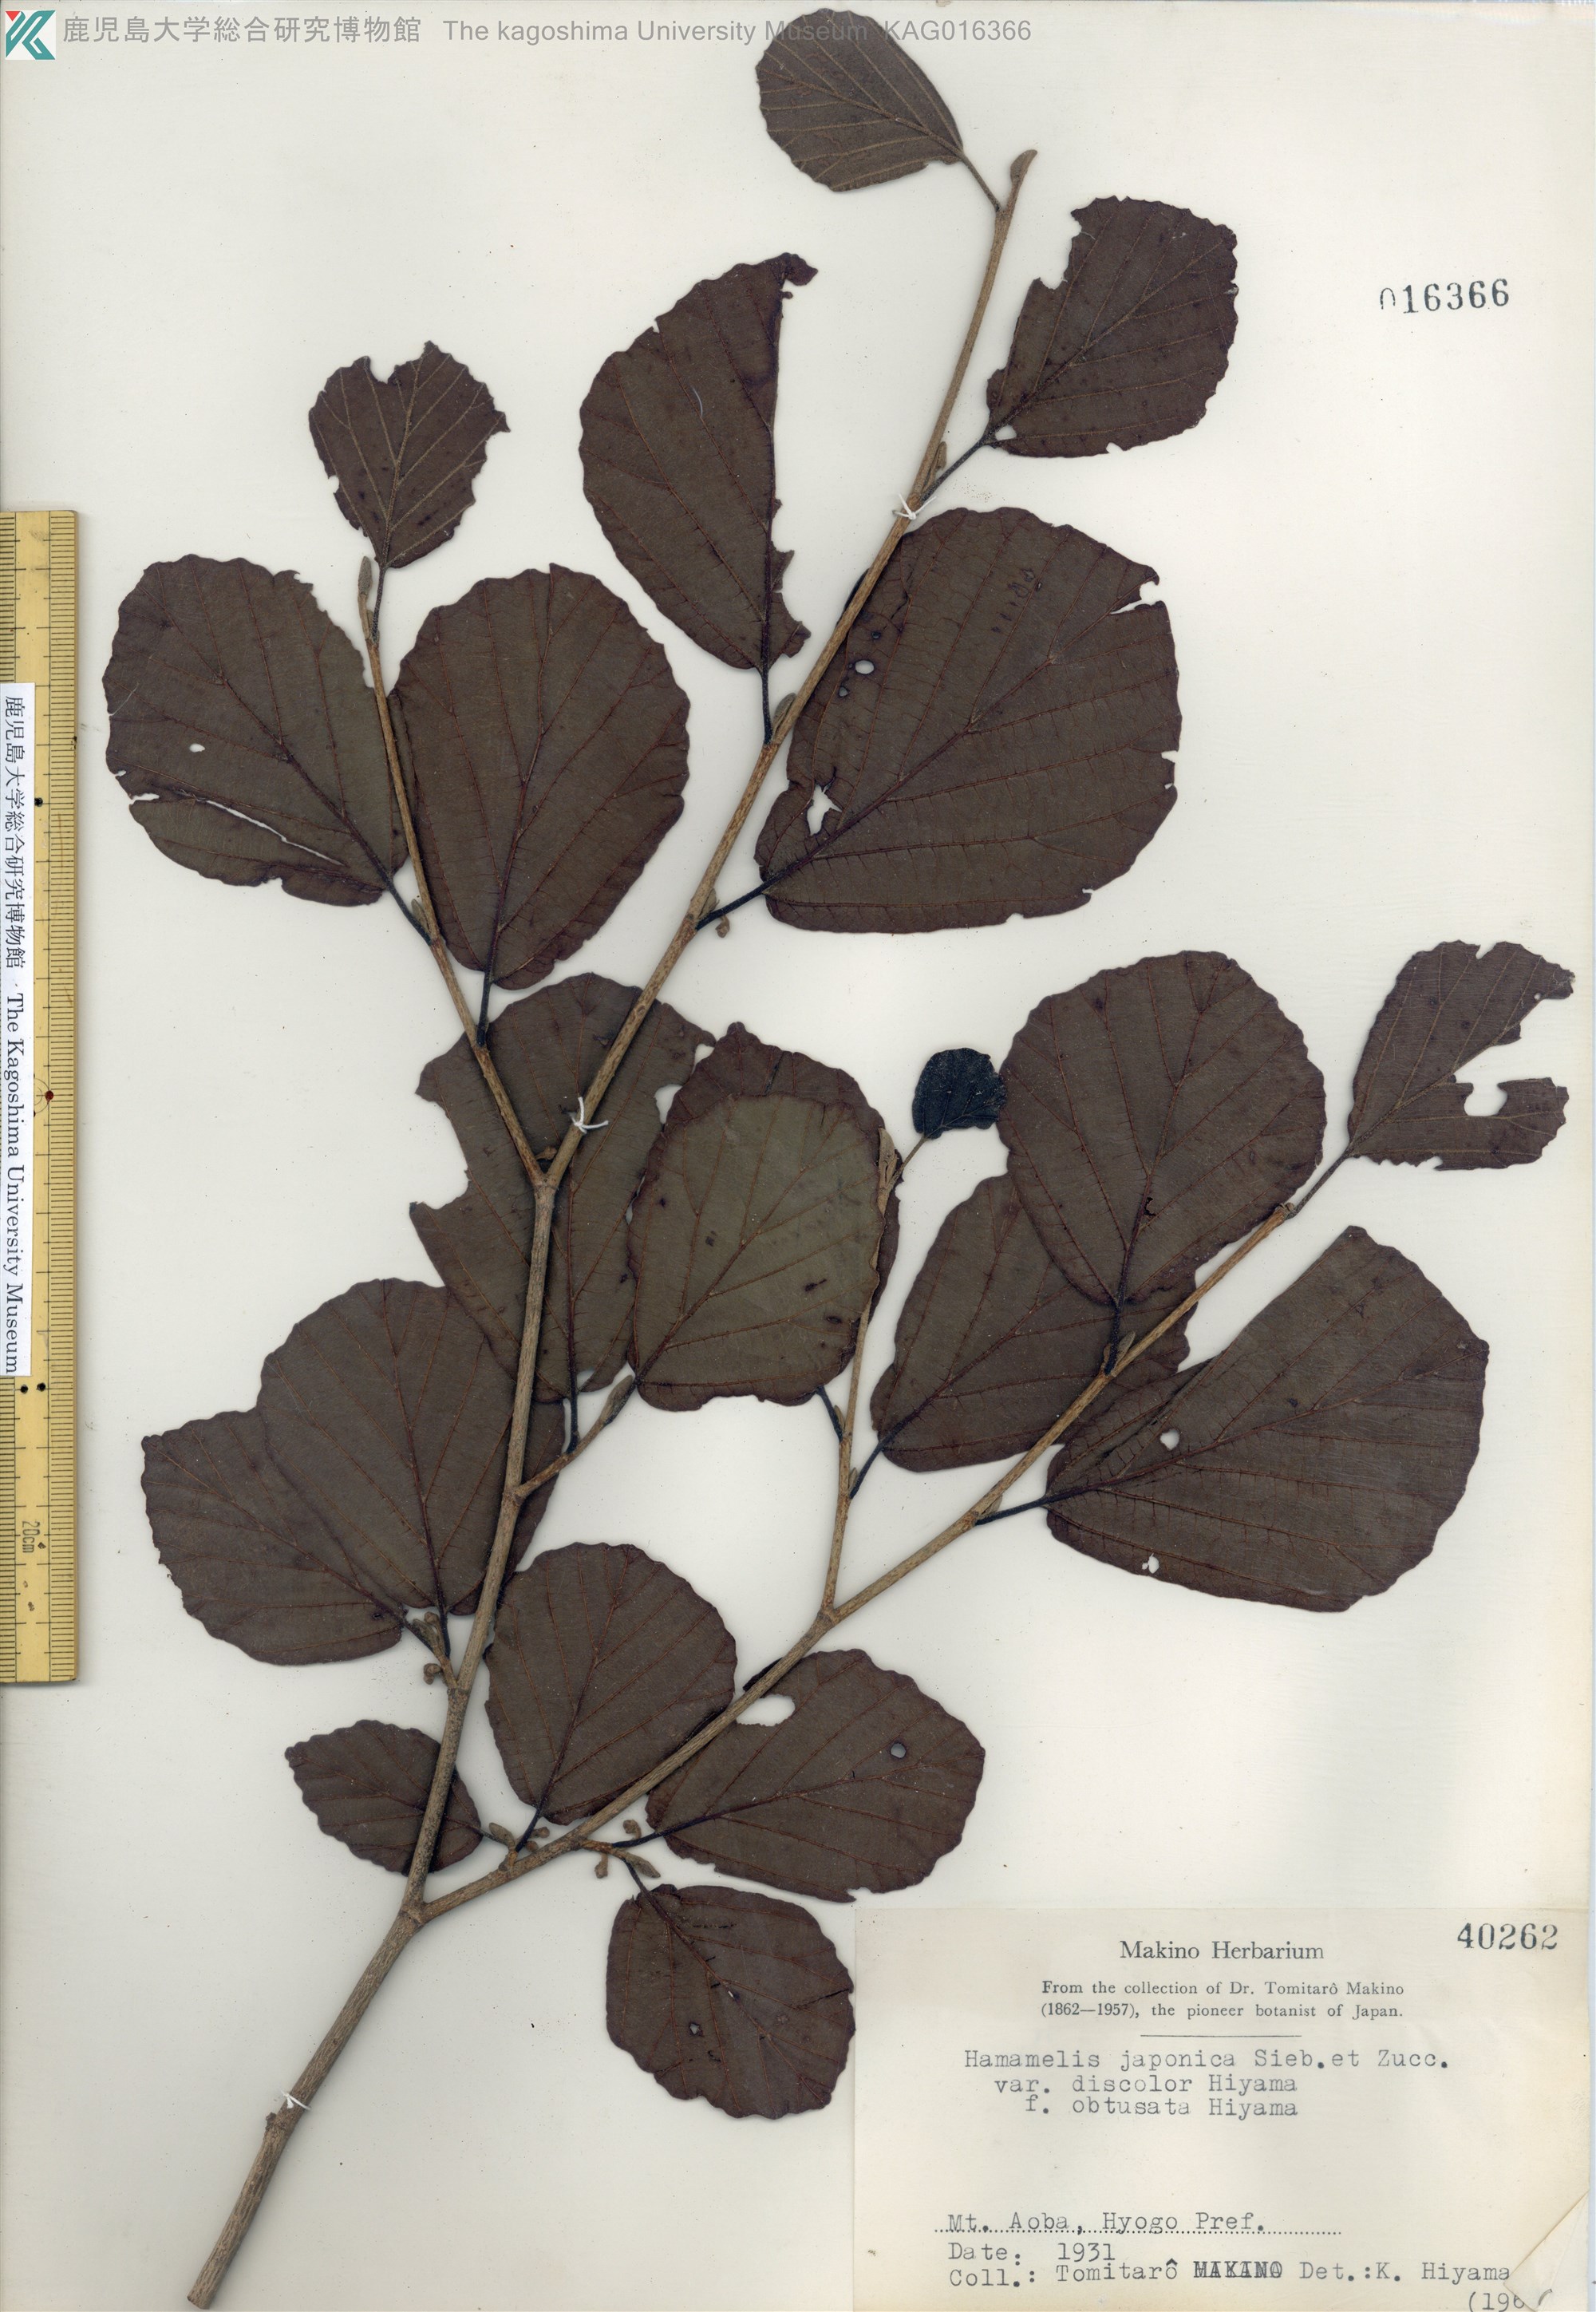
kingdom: Plantae
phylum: Tracheophyta
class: Magnoliopsida
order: Saxifragales
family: Hamamelidaceae
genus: Hamamelis
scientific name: Hamamelis japonica
